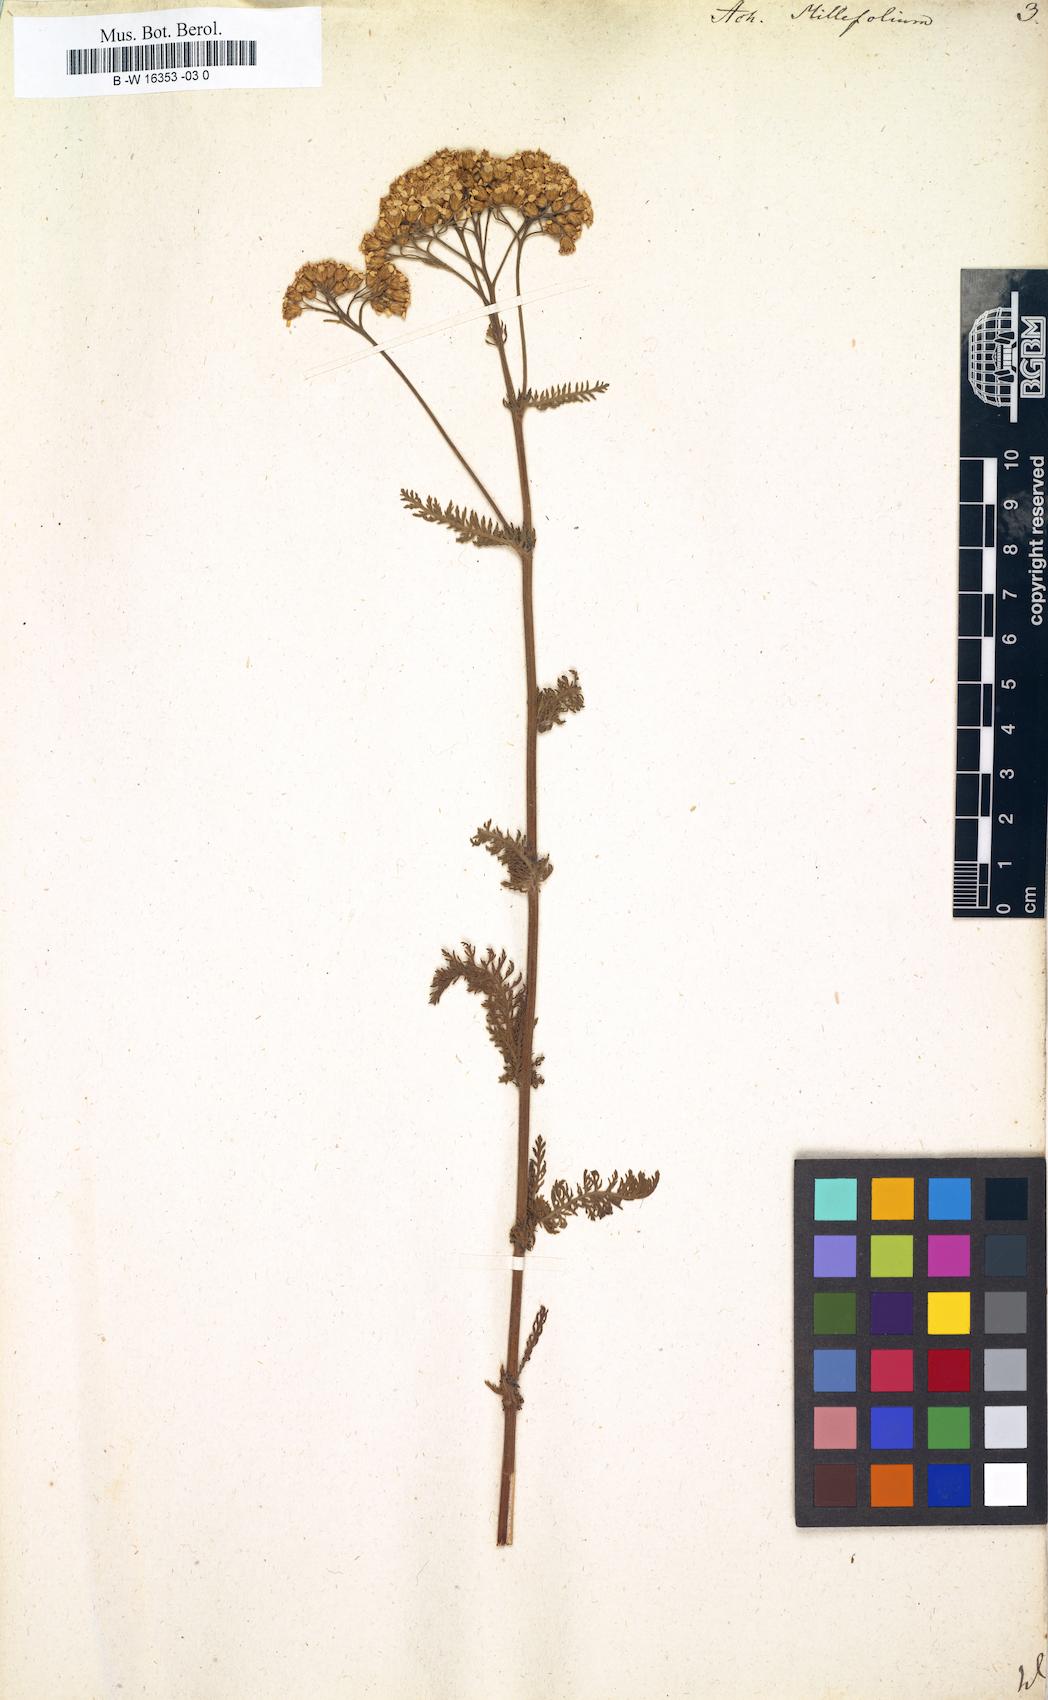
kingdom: Plantae
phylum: Tracheophyta
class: Magnoliopsida
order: Asterales
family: Asteraceae
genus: Achillea
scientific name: Achillea millefolium
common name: Yarrow
